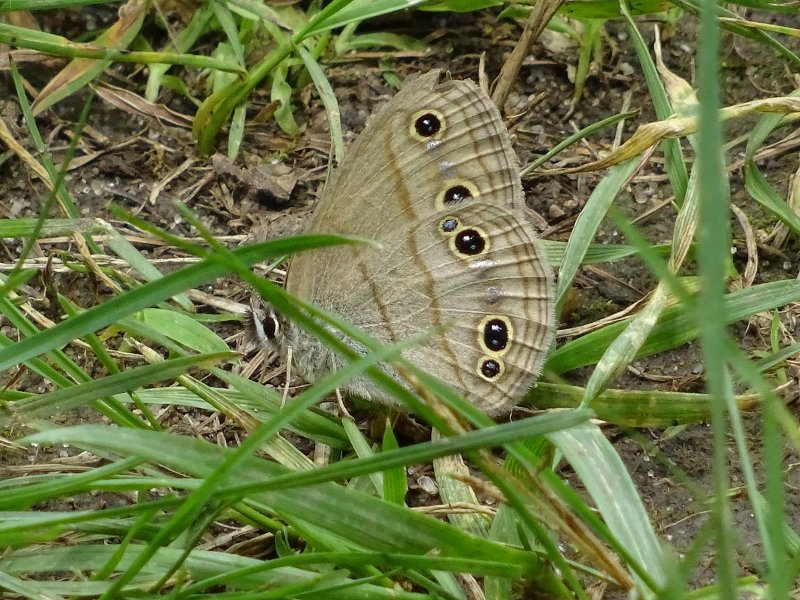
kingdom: Animalia
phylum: Arthropoda
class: Insecta
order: Lepidoptera
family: Nymphalidae
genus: Euptychia
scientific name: Euptychia cymela
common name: Little Wood Satyr
